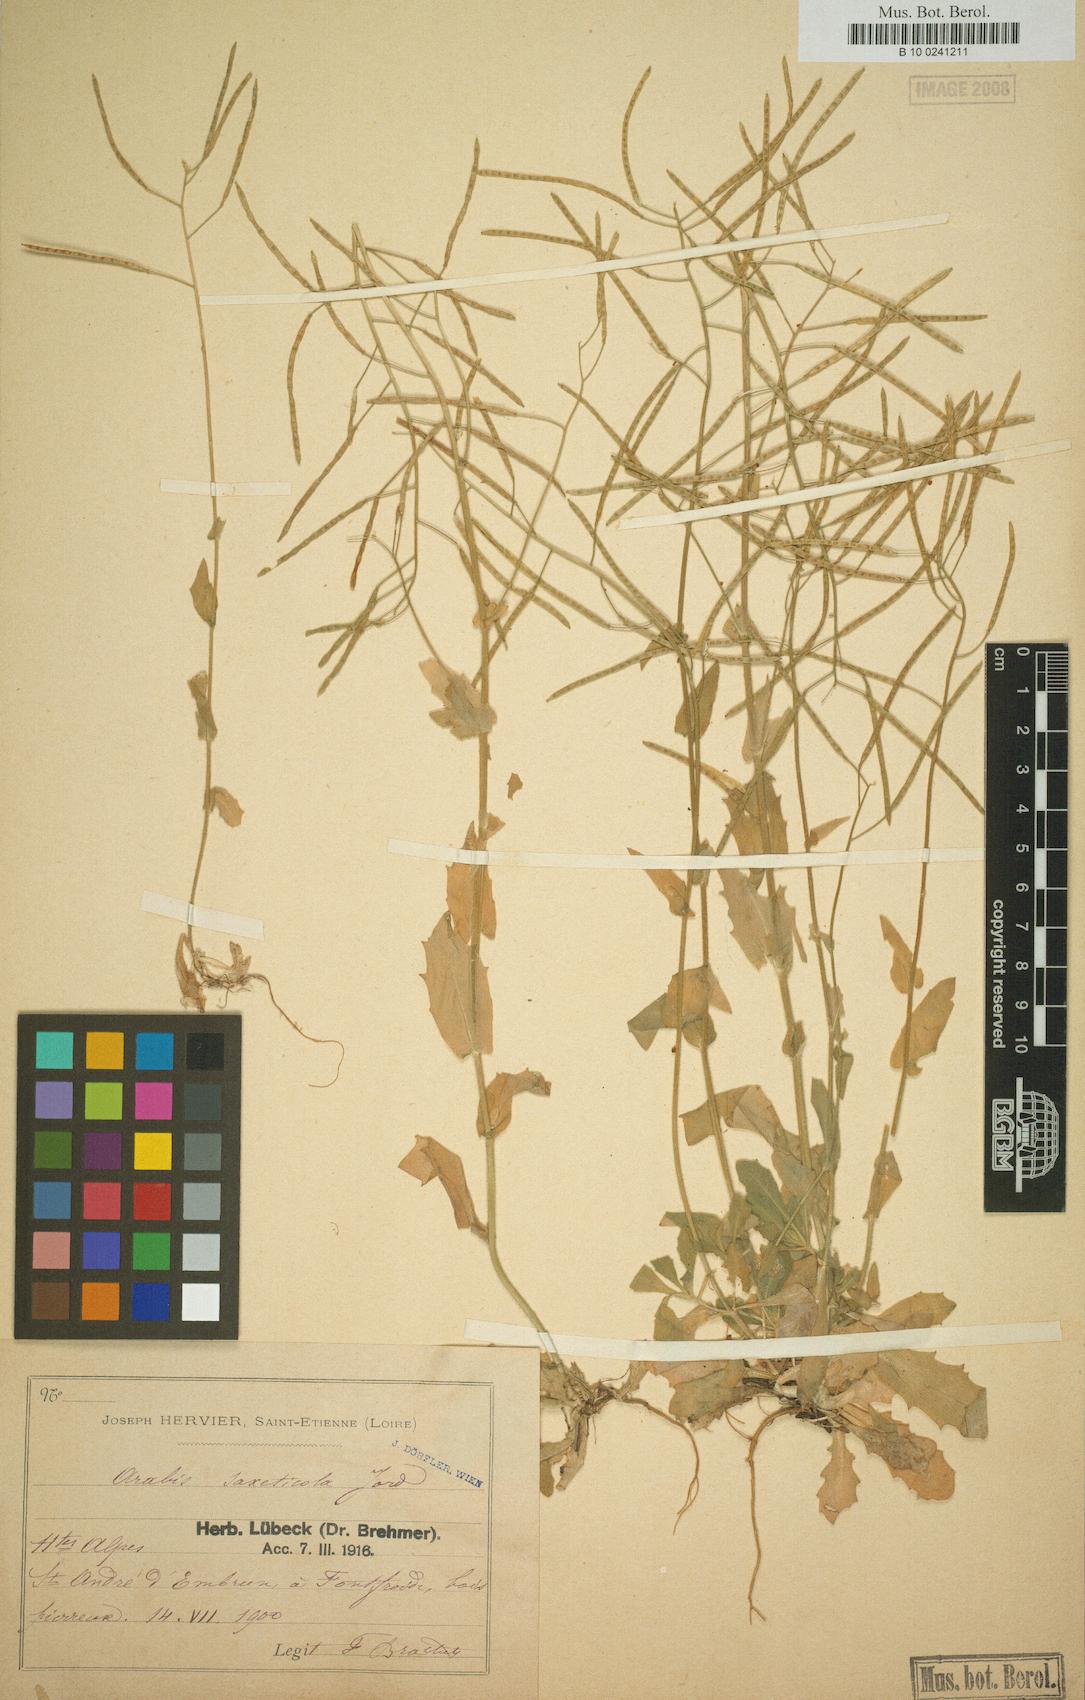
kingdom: Plantae
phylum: Tracheophyta
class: Magnoliopsida
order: Brassicales
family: Brassicaceae
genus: Arabis
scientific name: Arabis alpina
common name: Alpine rock-cress
